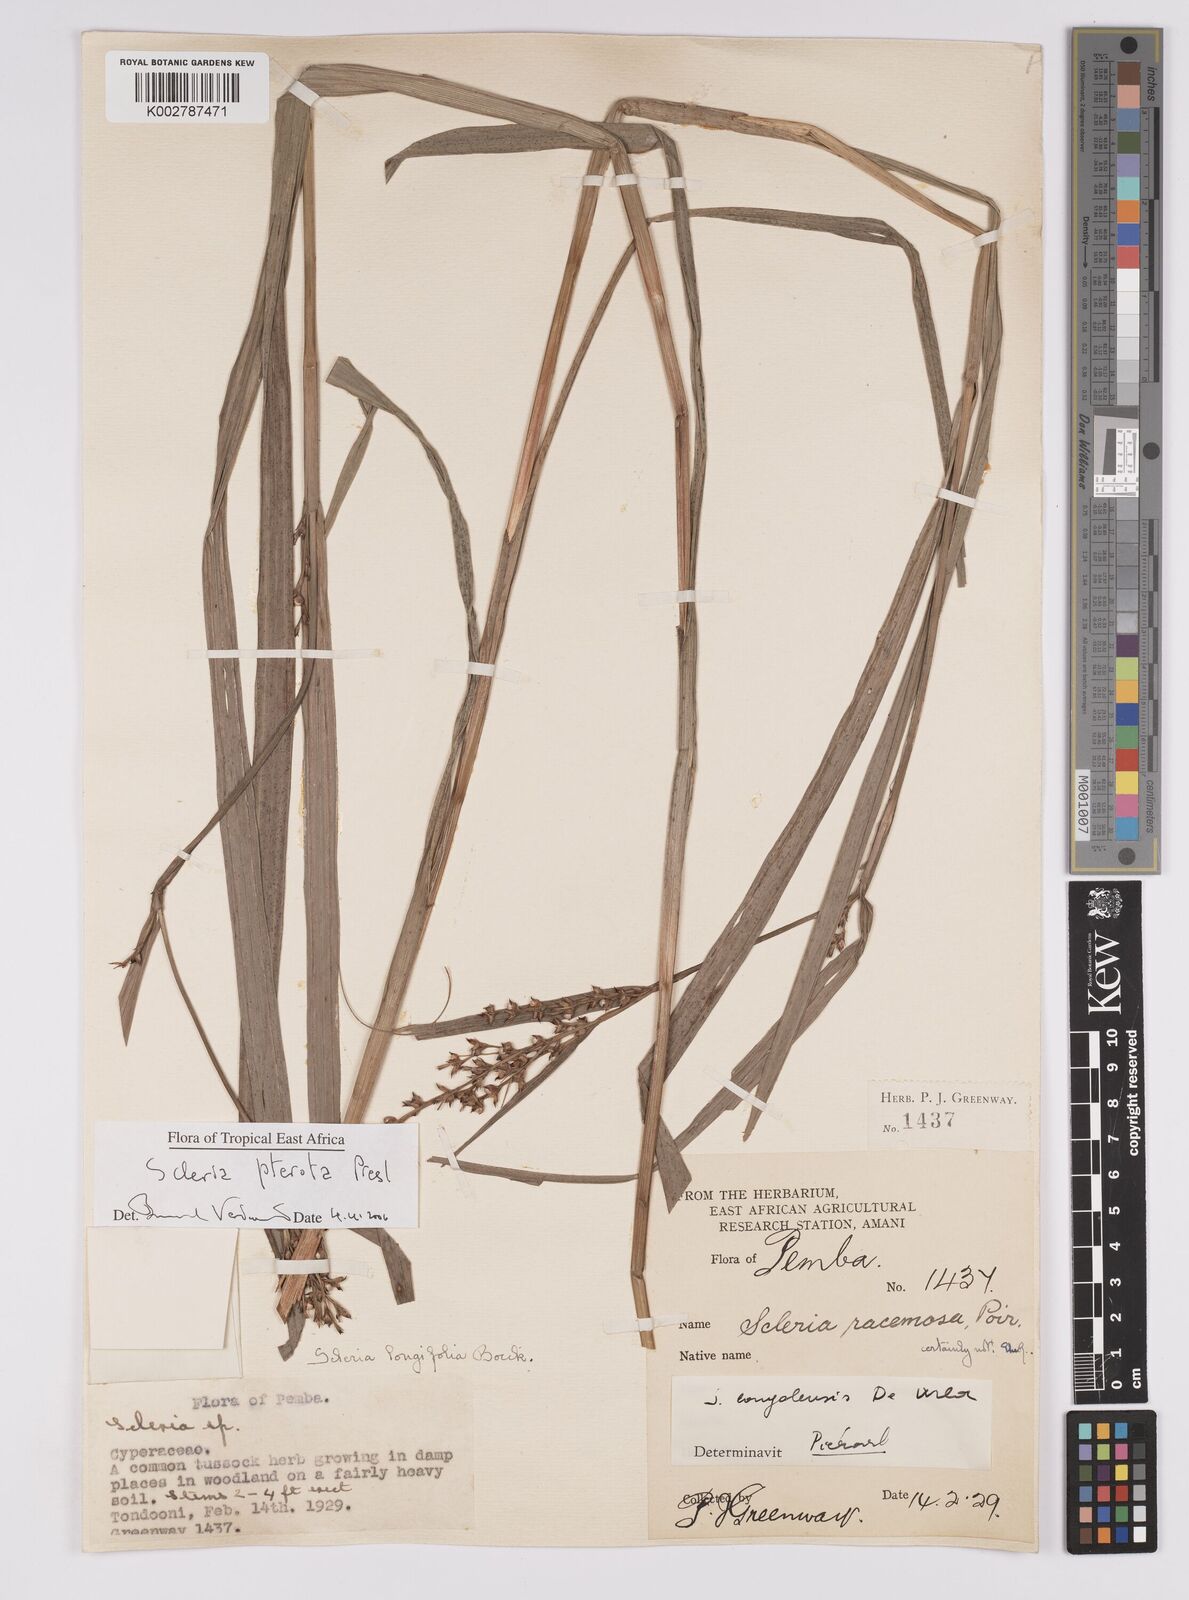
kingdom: Plantae
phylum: Tracheophyta
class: Liliopsida
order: Poales
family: Cyperaceae
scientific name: Cyperaceae
